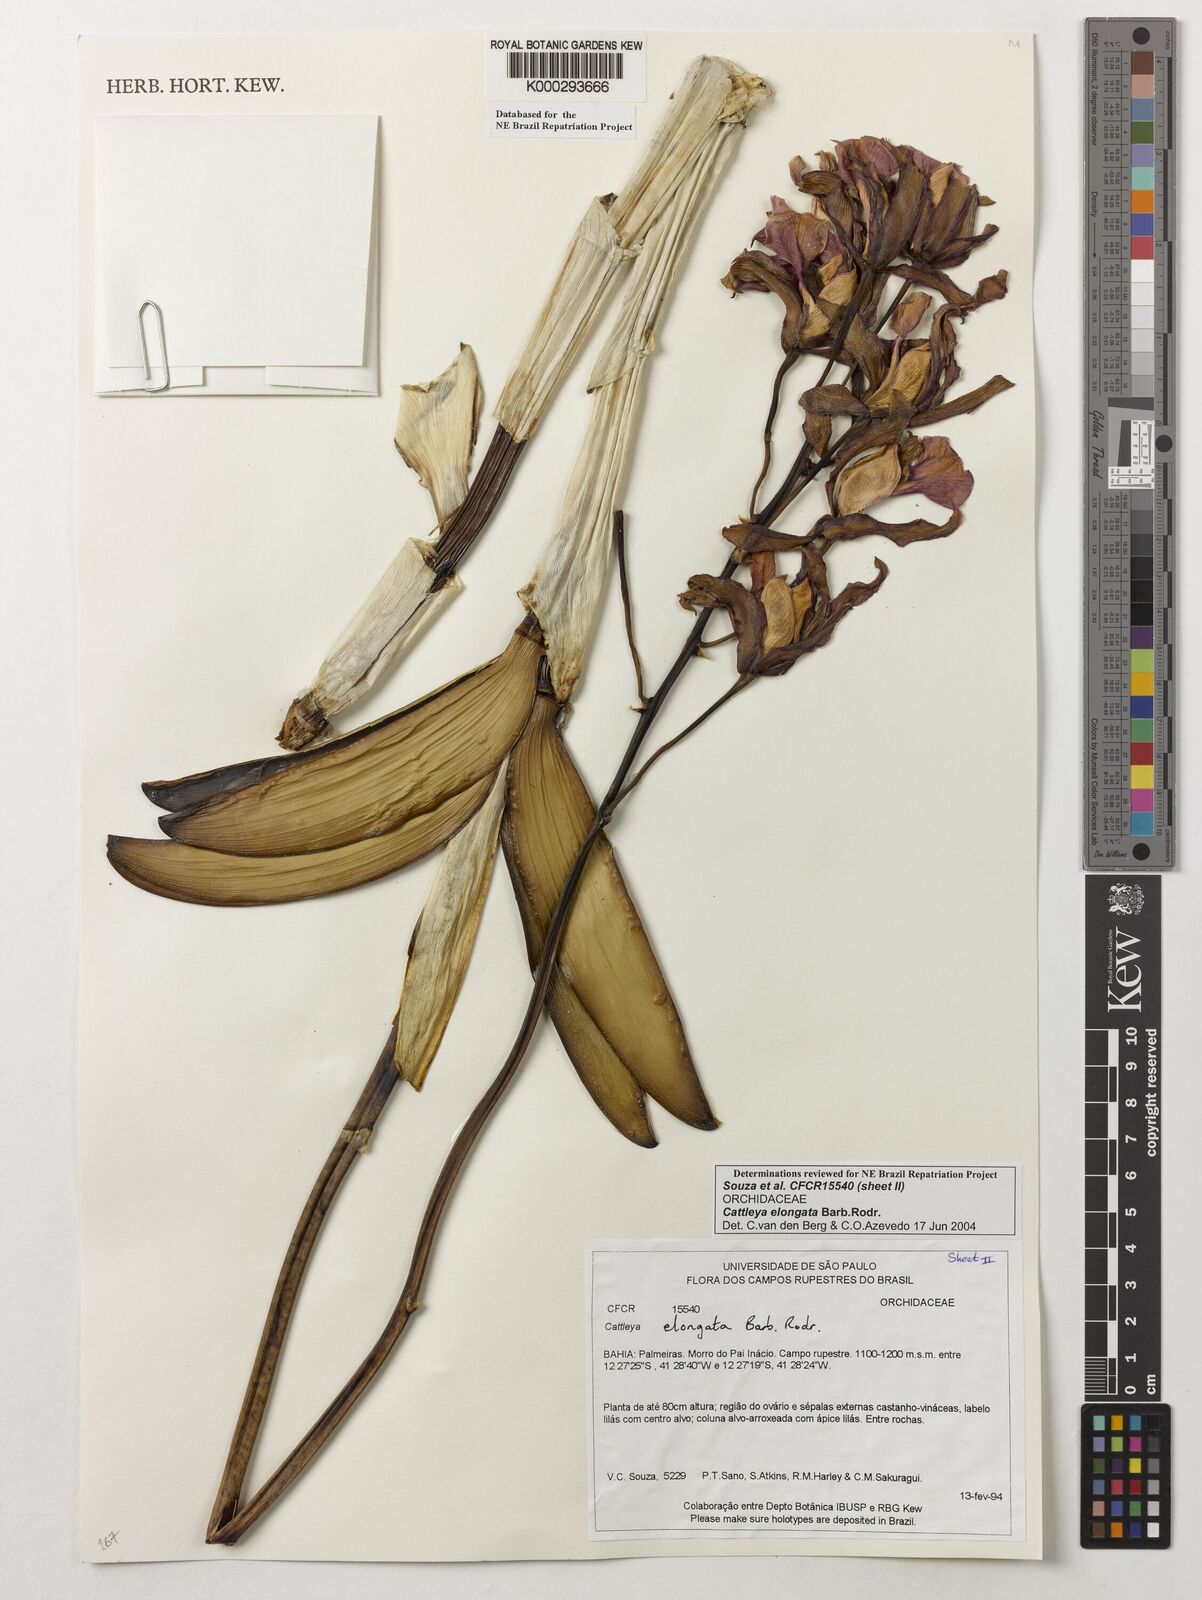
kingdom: Plantae
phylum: Tracheophyta
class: Liliopsida
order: Asparagales
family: Orchidaceae
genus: Cattleya
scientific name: Cattleya elongata
